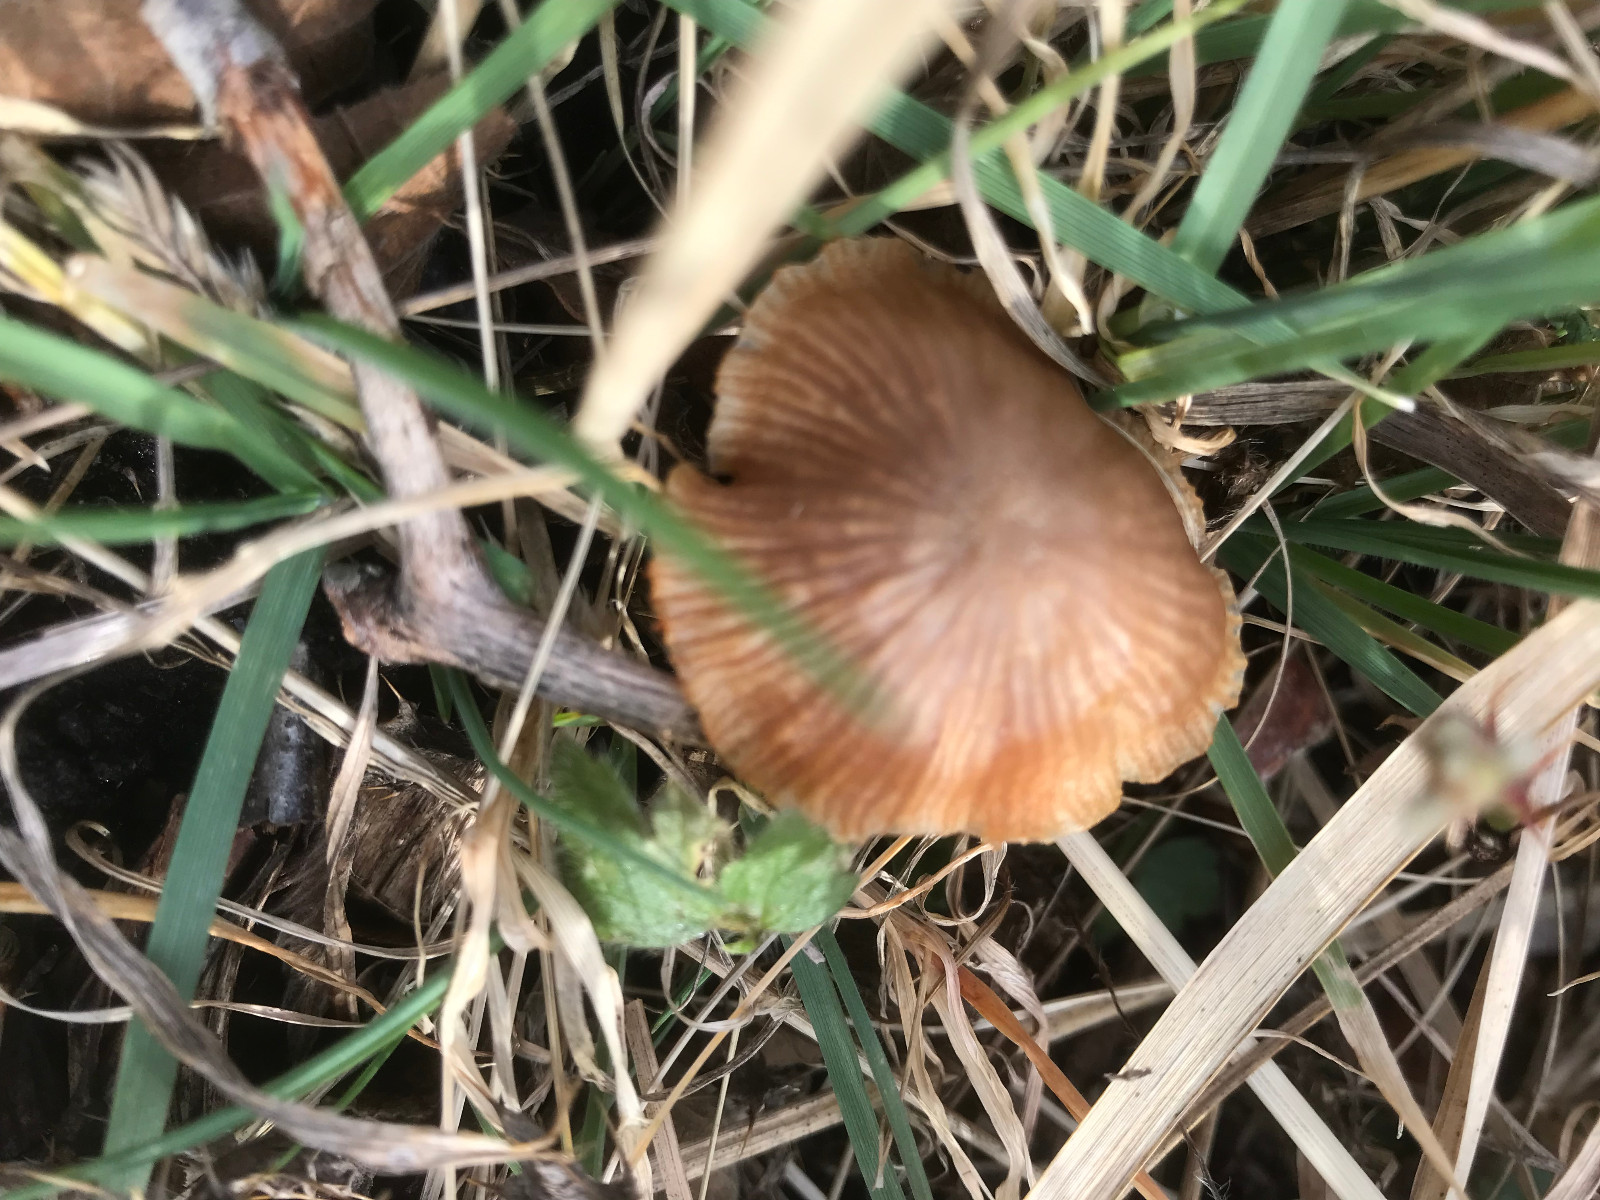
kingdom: Fungi
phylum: Basidiomycota
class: Agaricomycetes
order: Agaricales
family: Tubariaceae
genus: Tubaria
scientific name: Tubaria furfuracea
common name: kliddet fnughat
